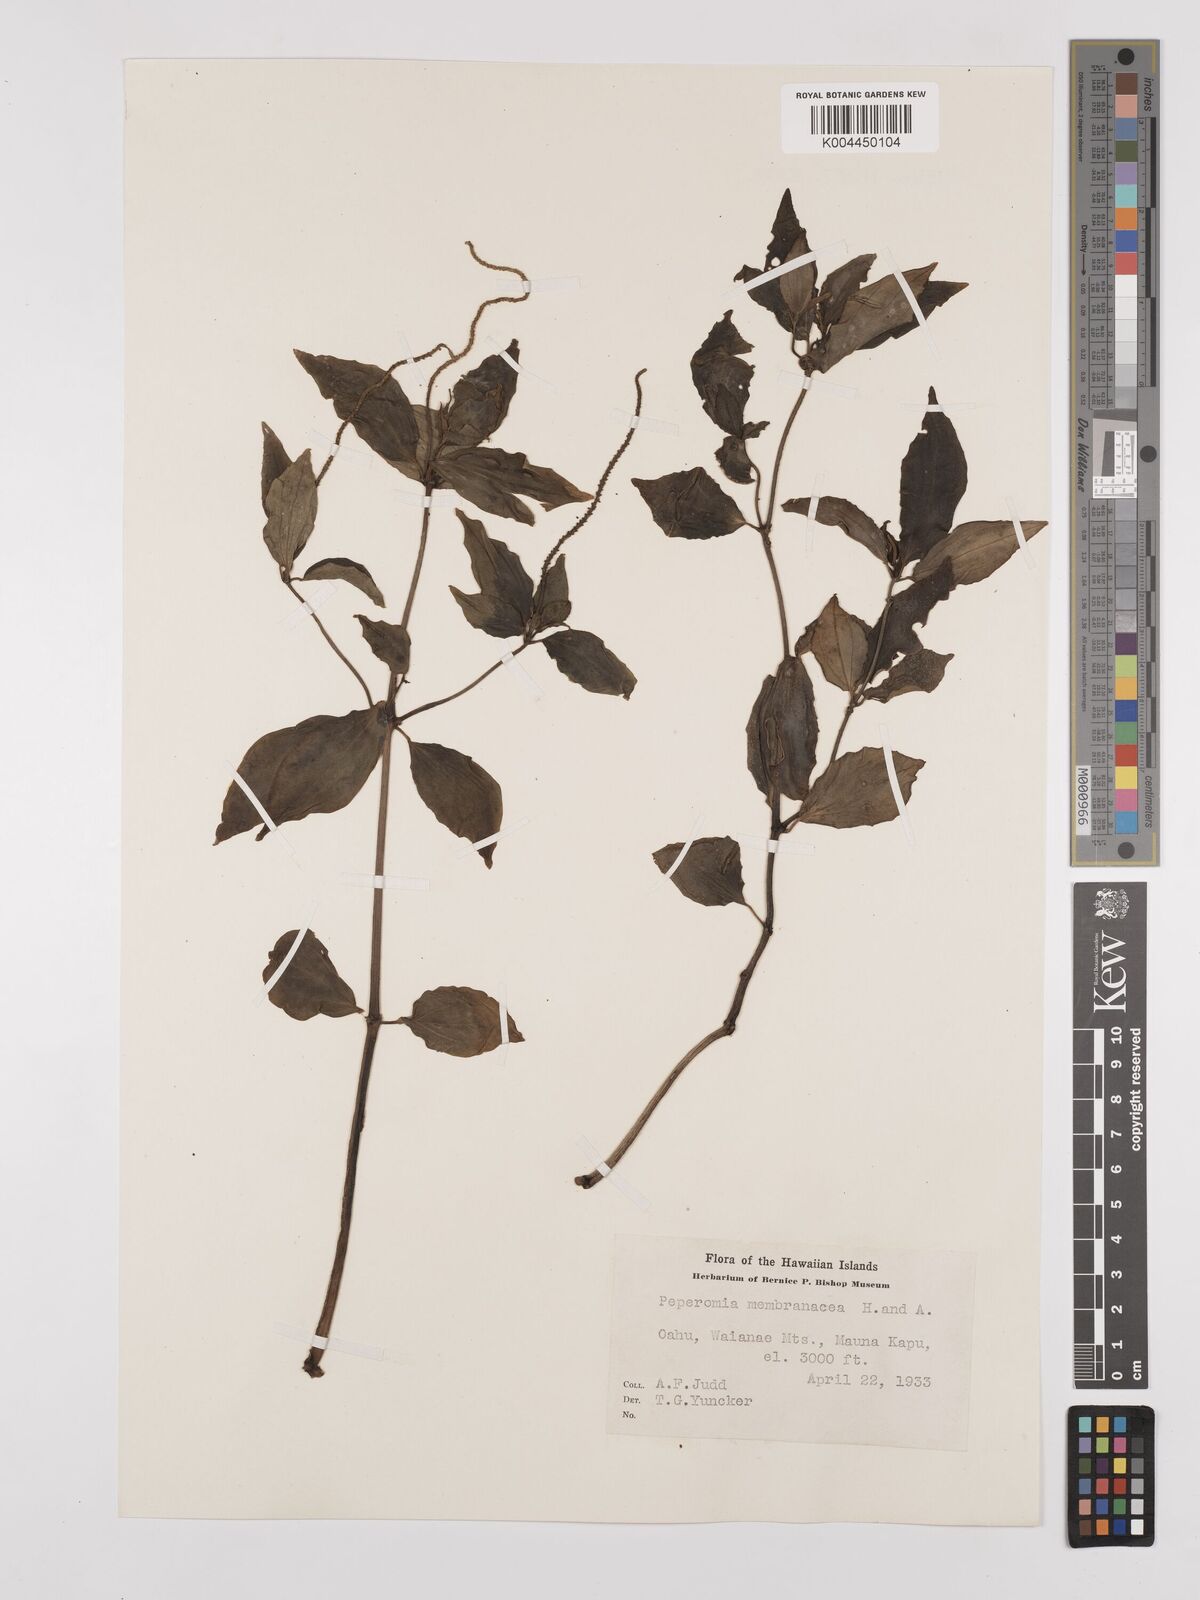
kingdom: Plantae
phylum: Tracheophyta
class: Magnoliopsida
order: Piperales
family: Piperaceae
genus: Peperomia
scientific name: Peperomia membranacea
